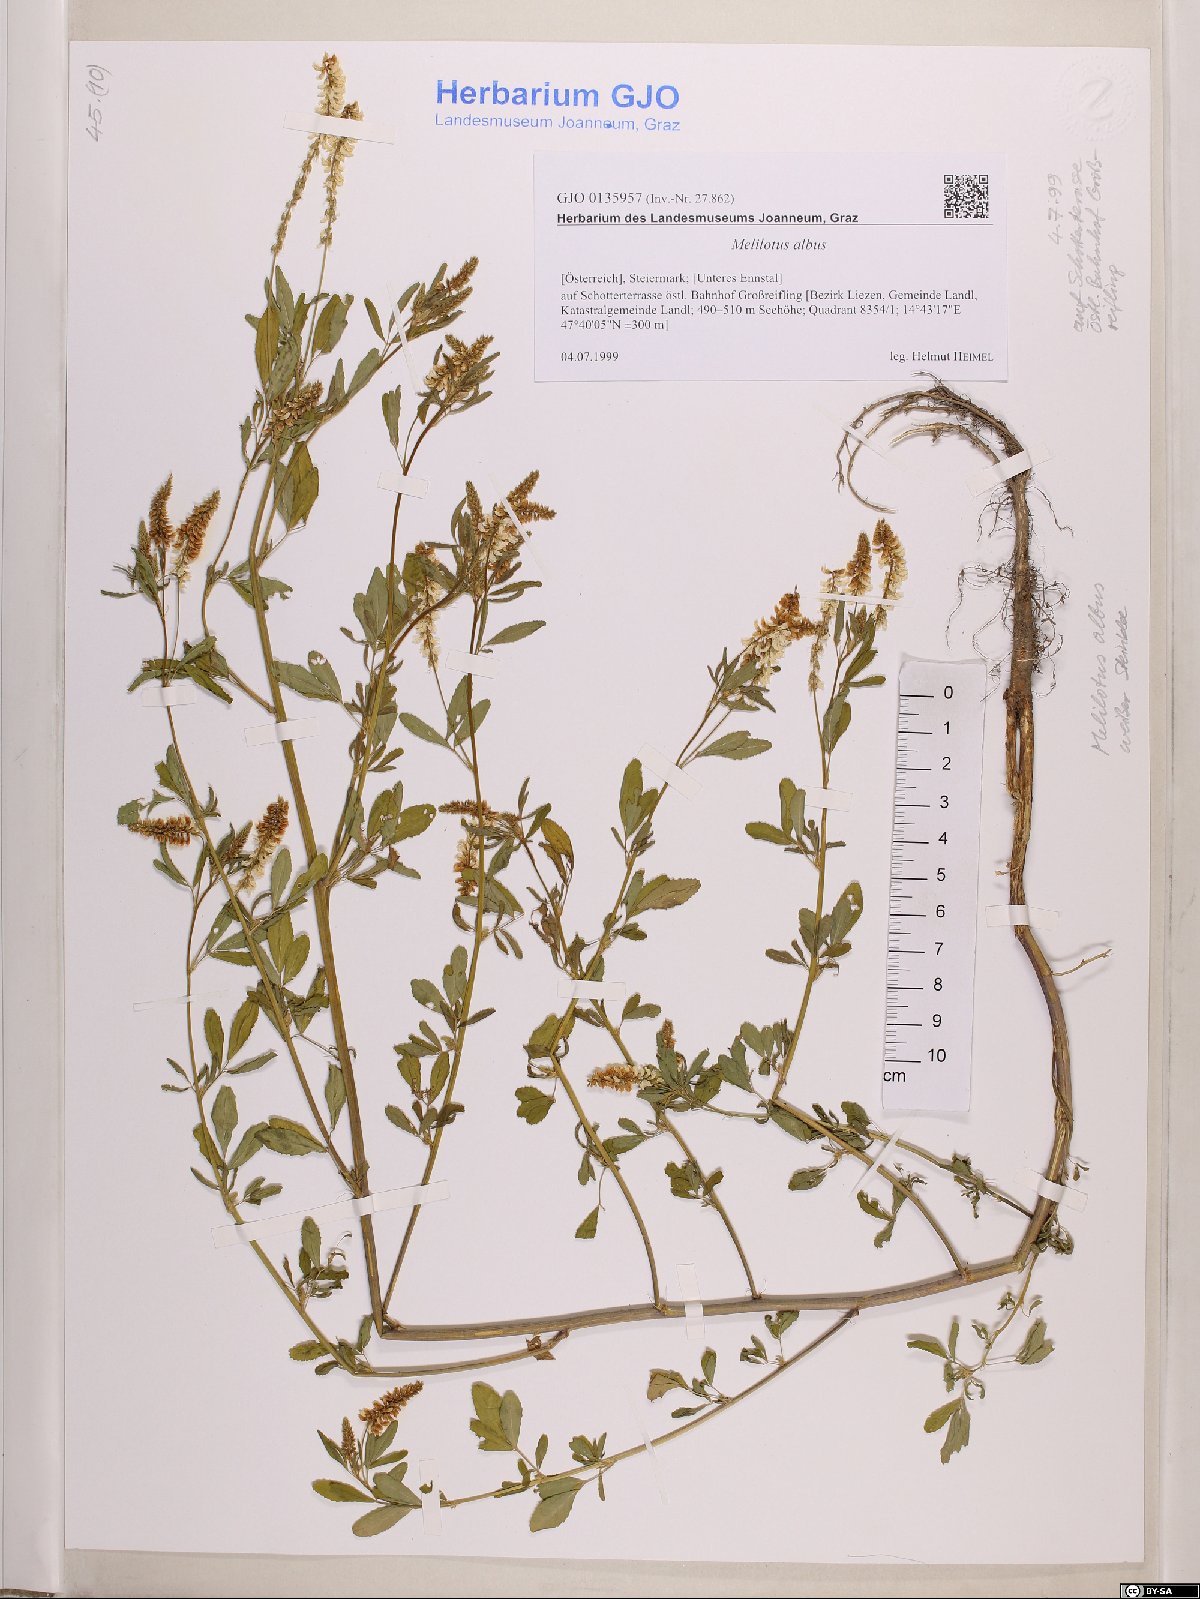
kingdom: Plantae
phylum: Tracheophyta
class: Magnoliopsida
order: Fabales
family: Fabaceae
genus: Melilotus
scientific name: Melilotus albus
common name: White melilot
